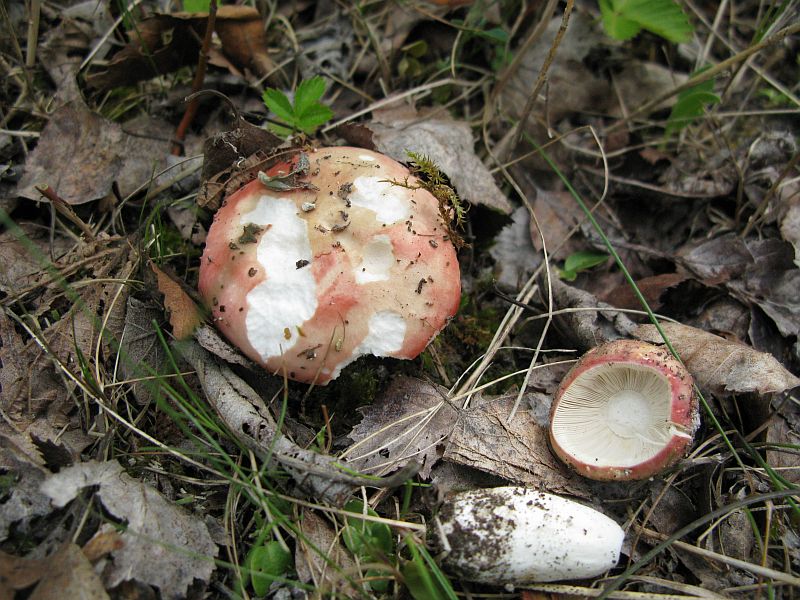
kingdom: Fungi
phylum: Basidiomycota
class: Agaricomycetes
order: Russulales
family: Russulaceae
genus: Russula
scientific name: Russula depallens
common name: falmende skørhat
